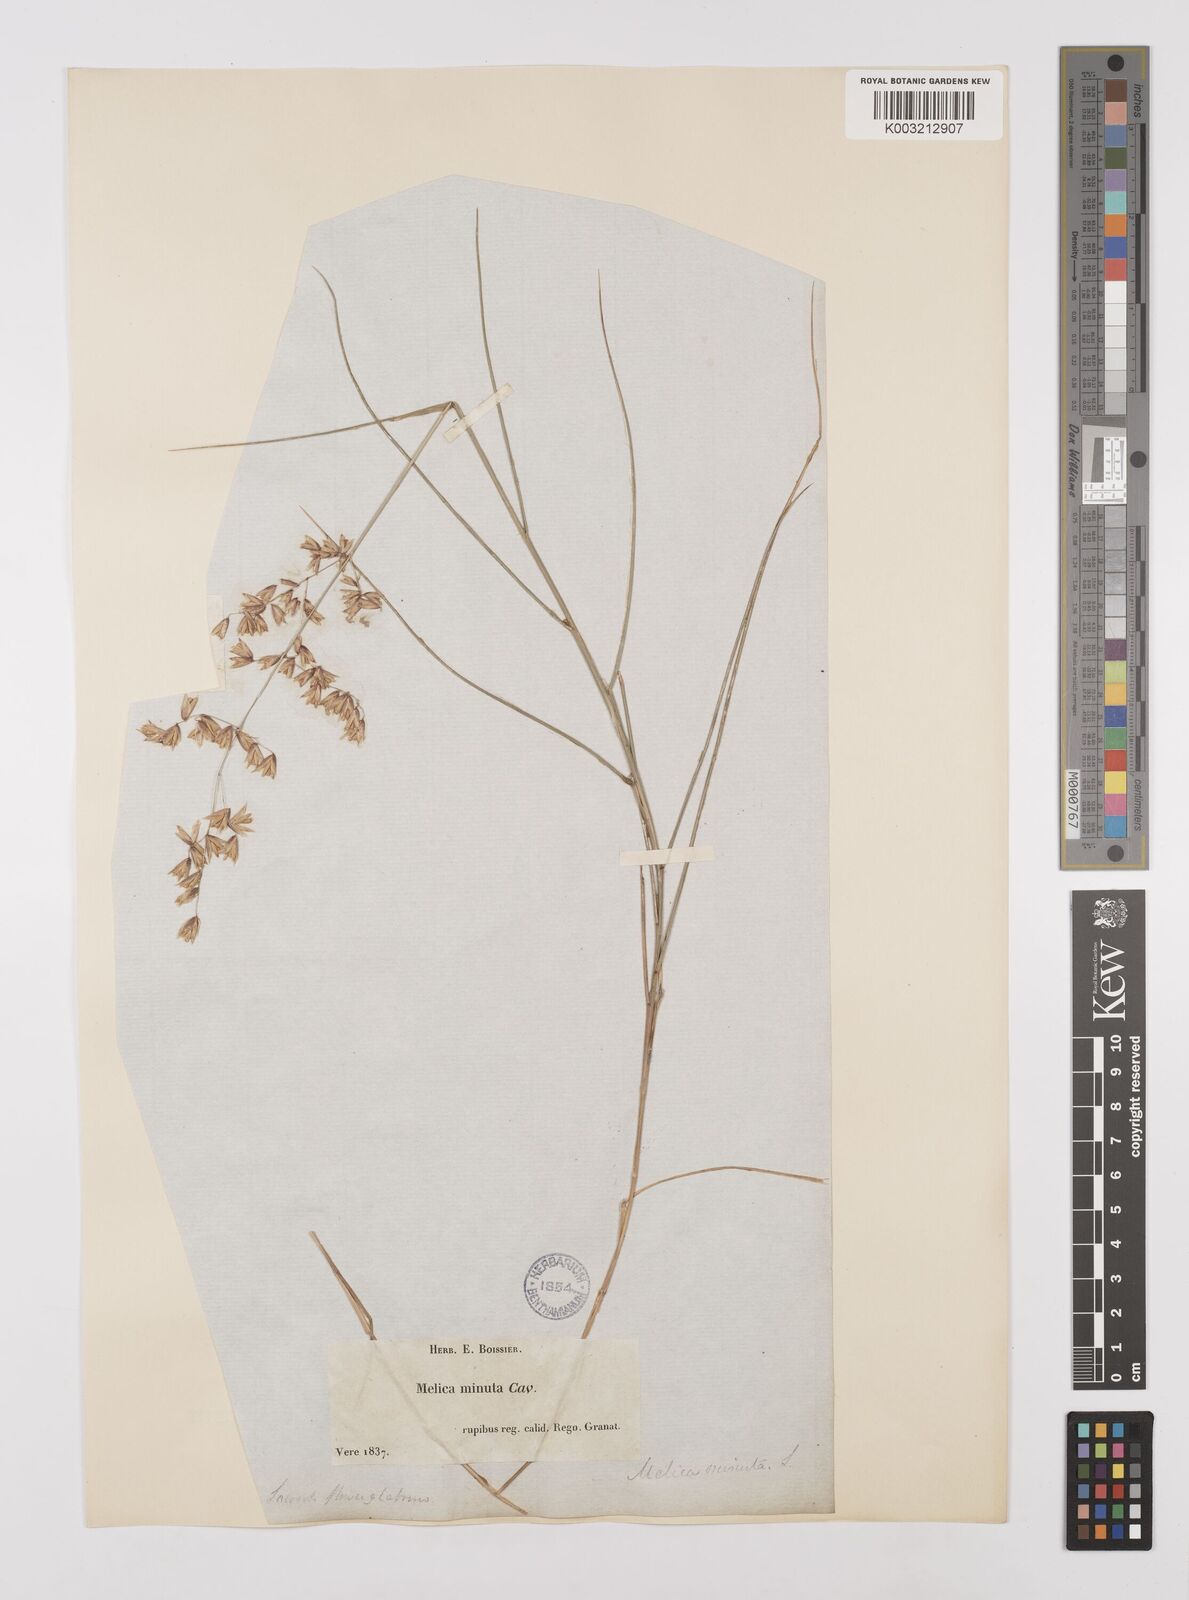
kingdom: Plantae
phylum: Tracheophyta
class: Liliopsida
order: Poales
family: Poaceae
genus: Melica
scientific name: Melica minuta
